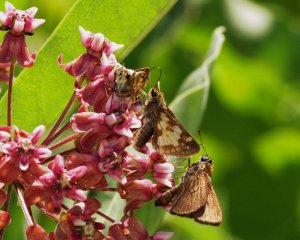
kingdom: Animalia
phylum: Arthropoda
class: Insecta
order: Lepidoptera
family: Hesperiidae
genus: Polites
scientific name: Polites coras
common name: Peck's Skipper
